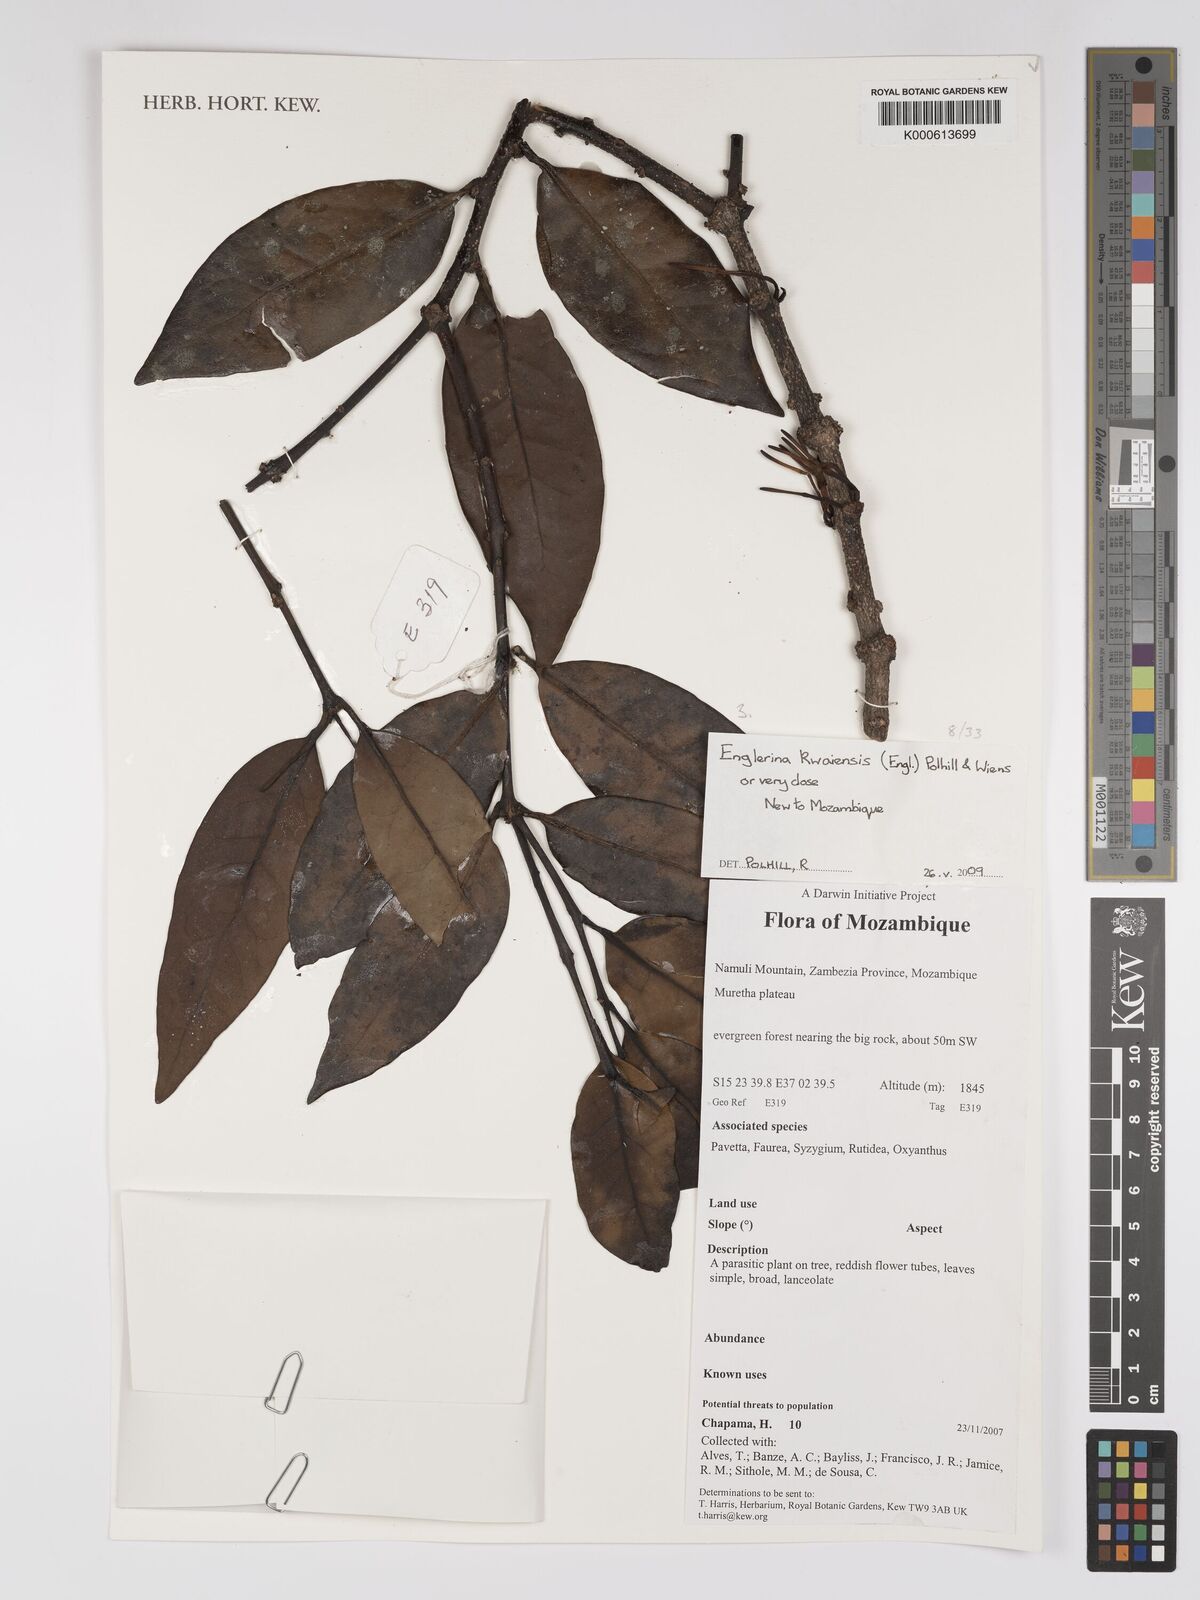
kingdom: Plantae
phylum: Tracheophyta
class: Magnoliopsida
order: Santalales
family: Loranthaceae
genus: Englerina
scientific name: Englerina kwaiensis
